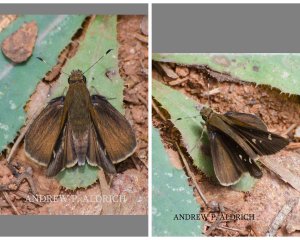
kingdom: Animalia
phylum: Arthropoda
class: Insecta
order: Lepidoptera
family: Hesperiidae
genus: Lerema
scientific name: Lerema accius
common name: Clouded Skipper
